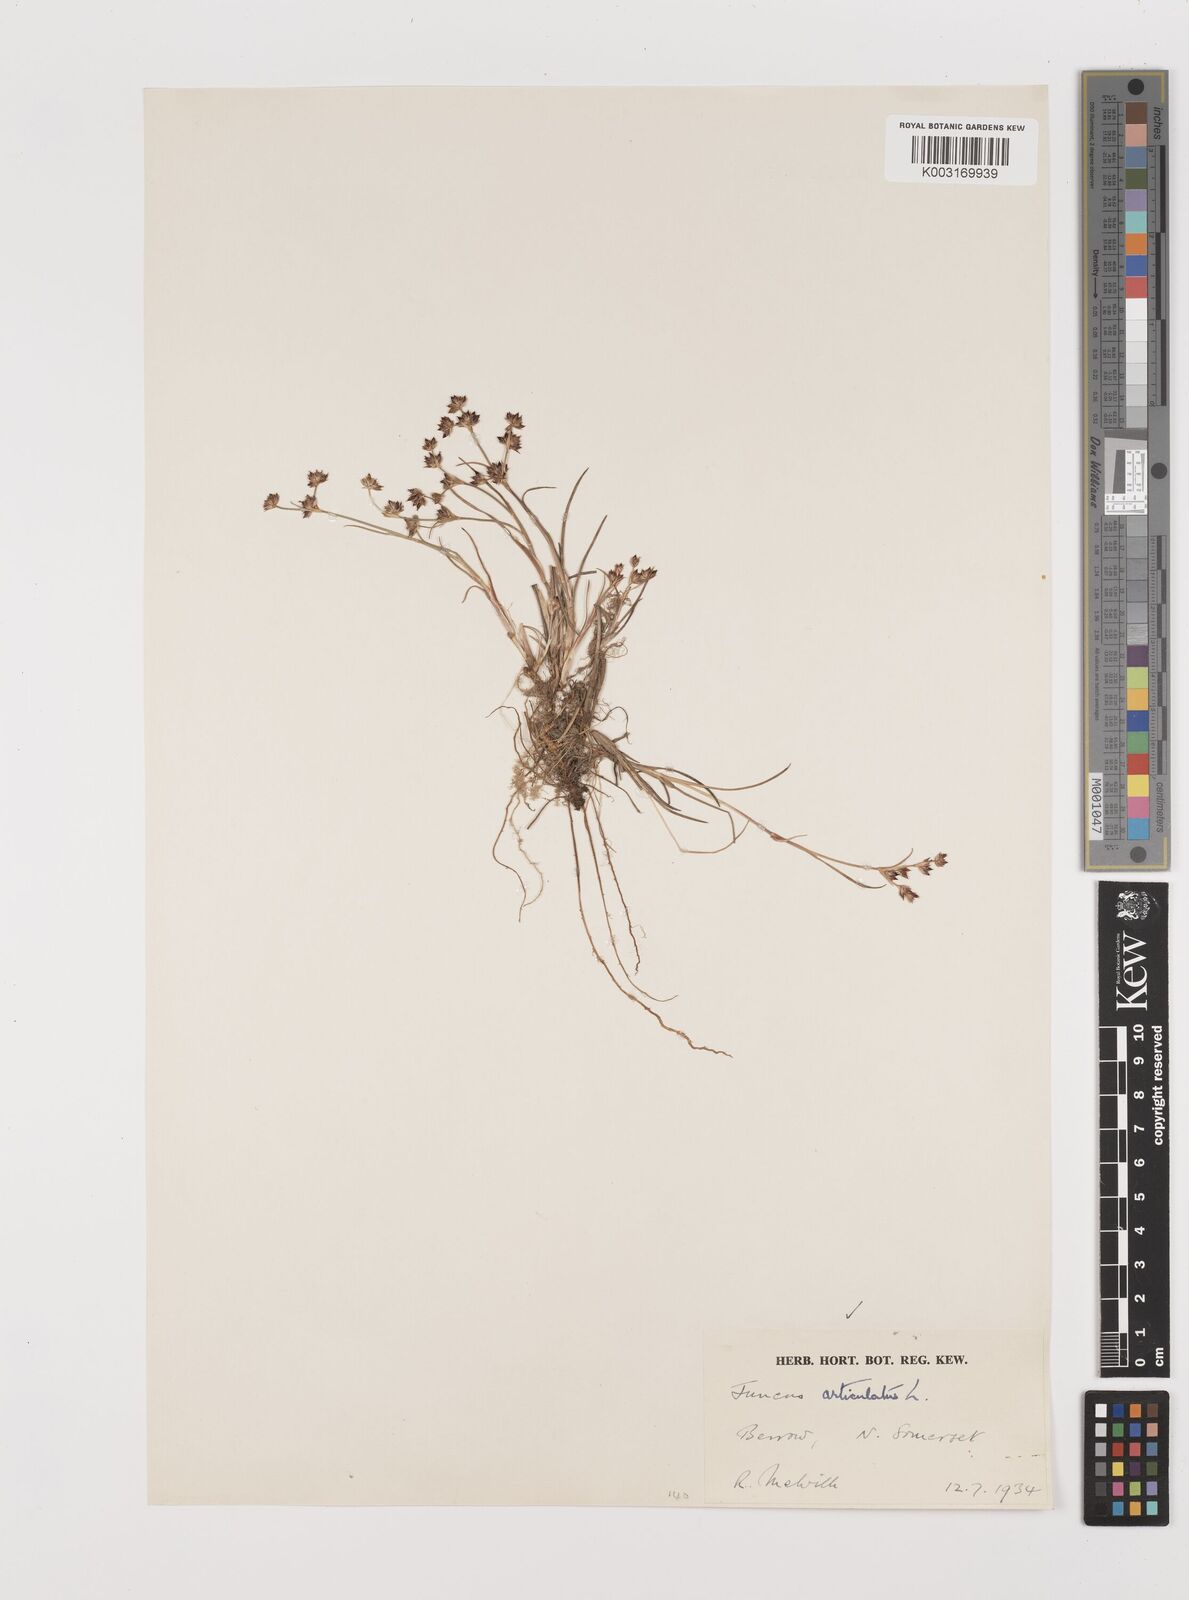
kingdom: Plantae
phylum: Tracheophyta
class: Liliopsida
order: Poales
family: Juncaceae
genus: Juncus
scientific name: Juncus articulatus
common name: Jointed rush
